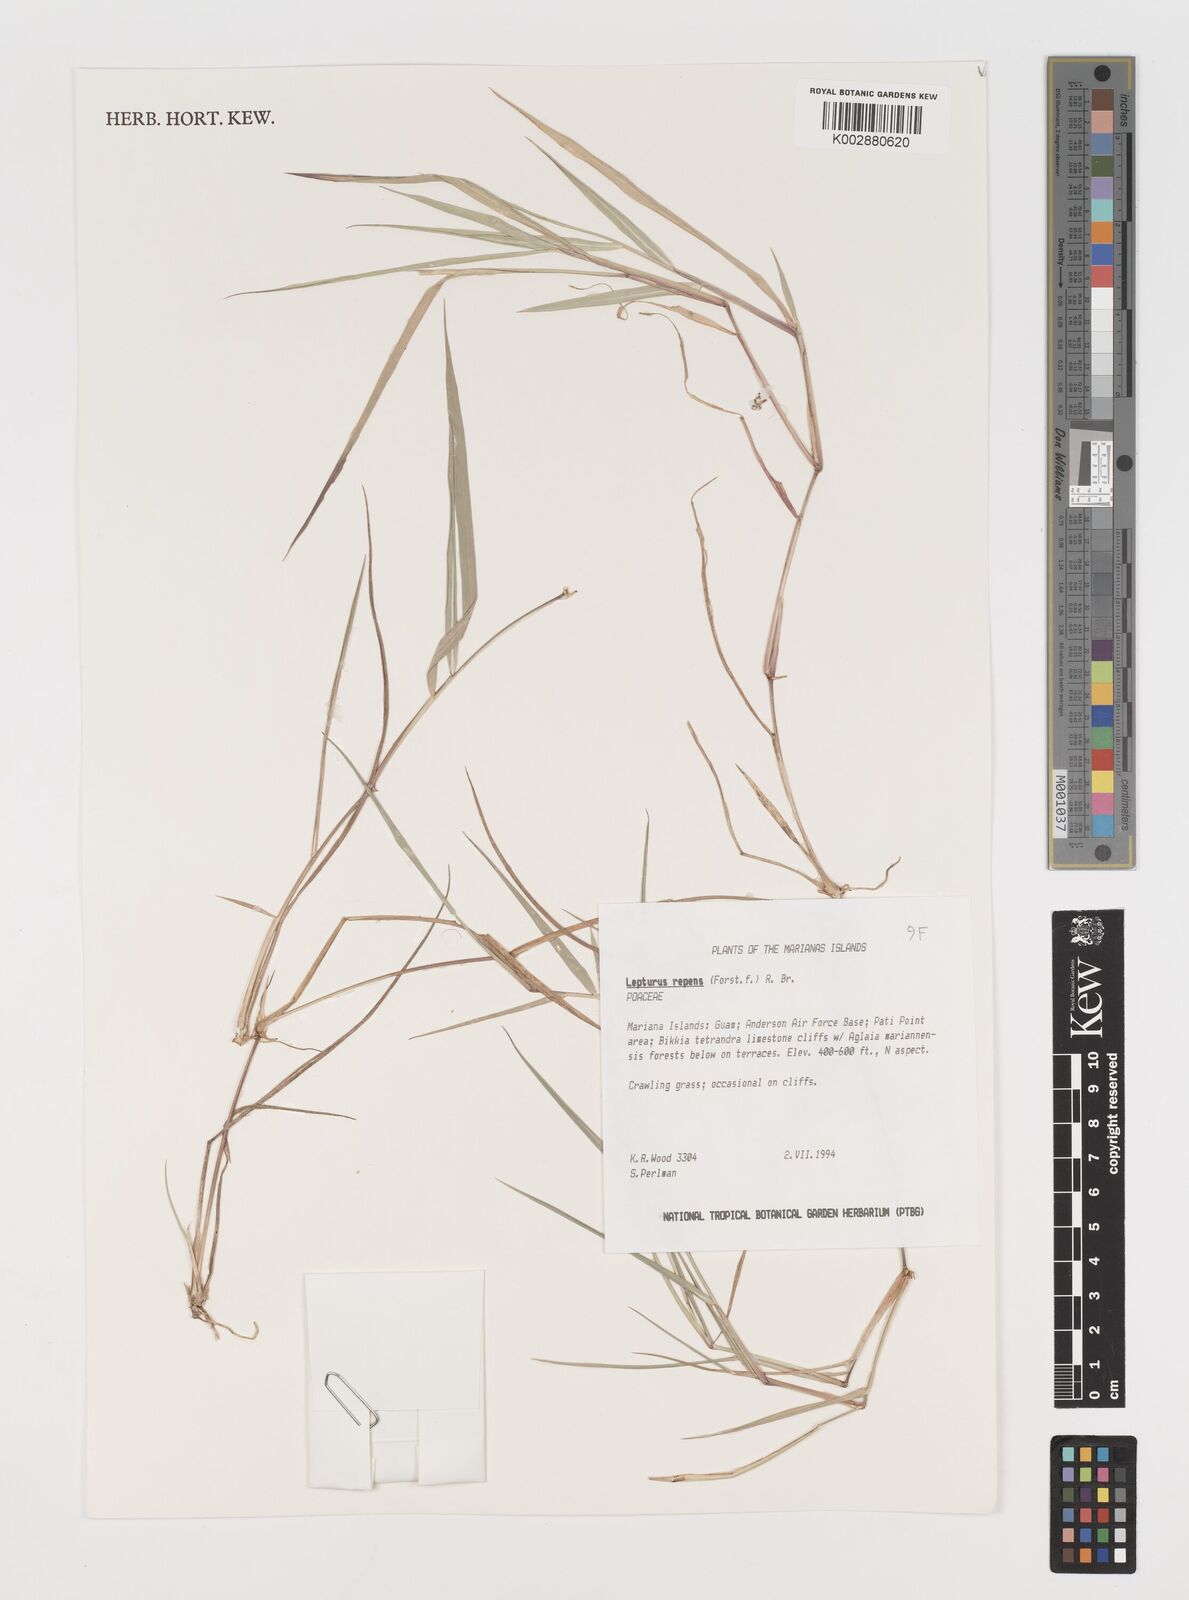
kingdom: Plantae
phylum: Tracheophyta
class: Liliopsida
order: Poales
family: Poaceae
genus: Lepturus
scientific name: Lepturus repens
